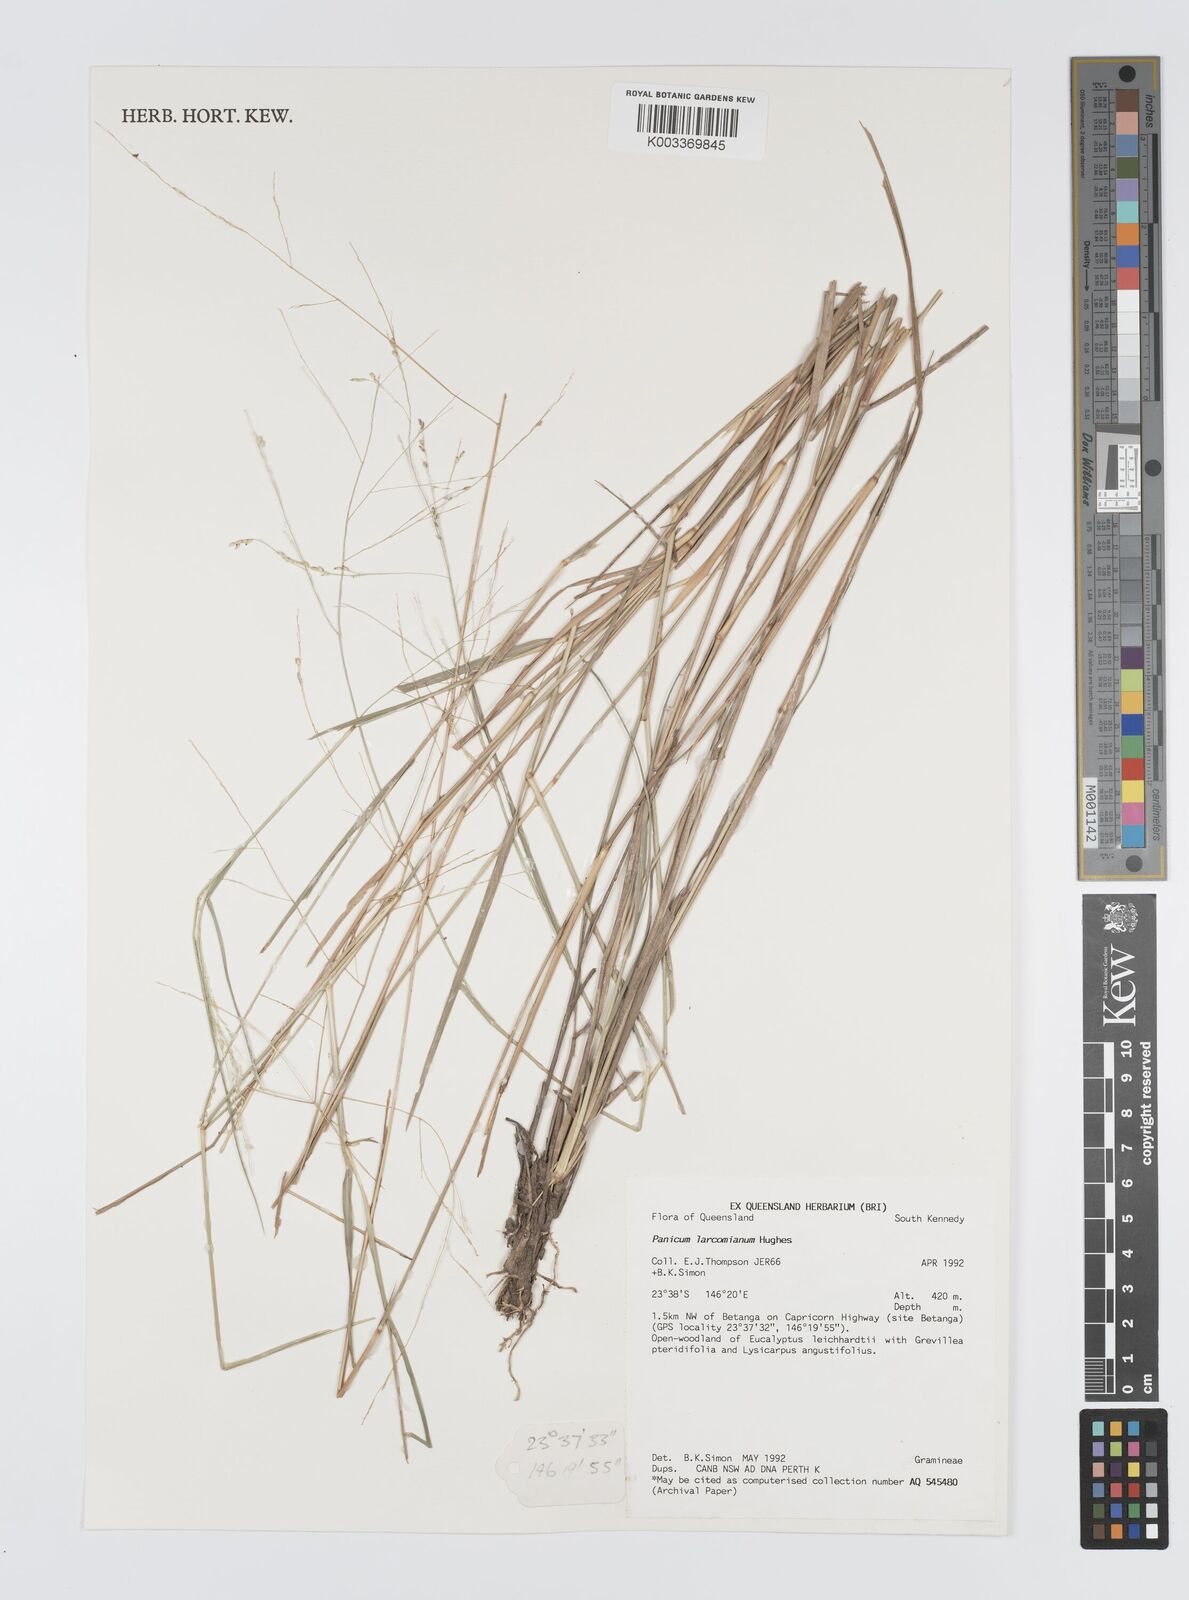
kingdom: Plantae
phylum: Tracheophyta
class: Liliopsida
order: Poales
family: Poaceae
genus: Panicum
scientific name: Panicum larcomianum
